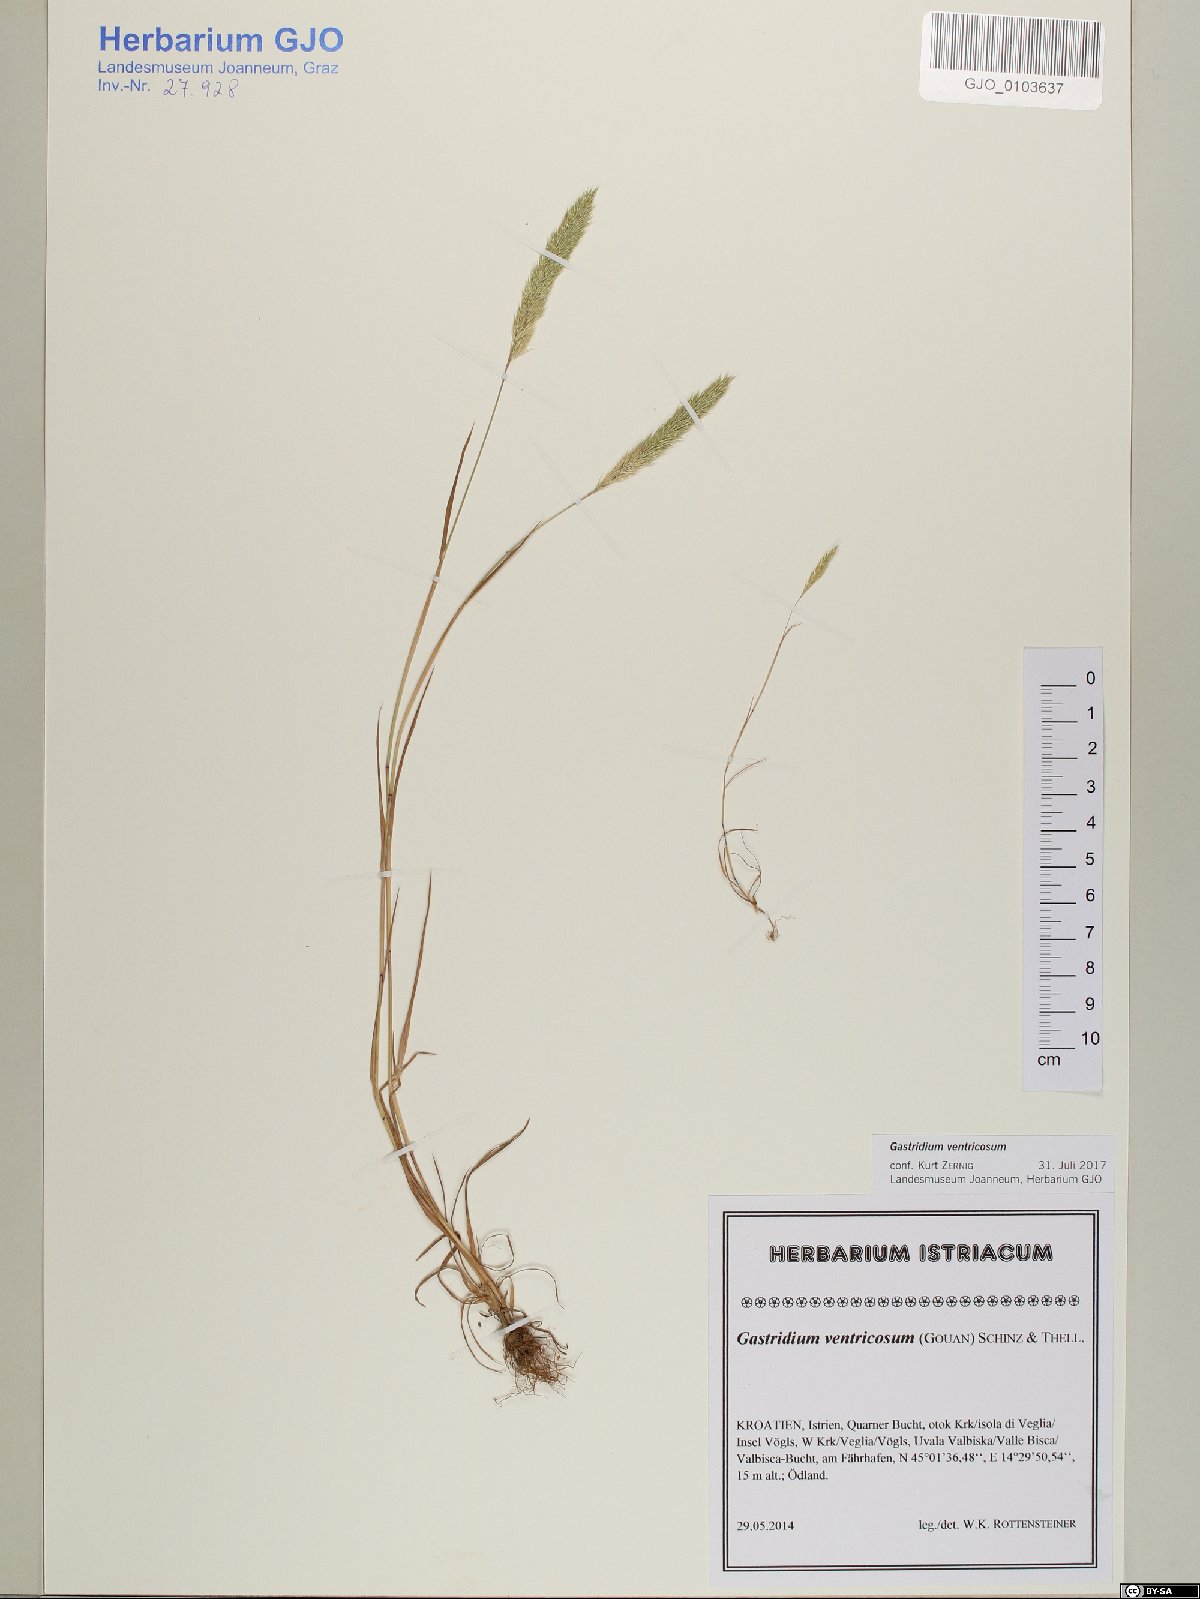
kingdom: Plantae
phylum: Tracheophyta
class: Liliopsida
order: Poales
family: Poaceae
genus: Gastridium
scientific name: Gastridium ventricosum
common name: Nit-grass
